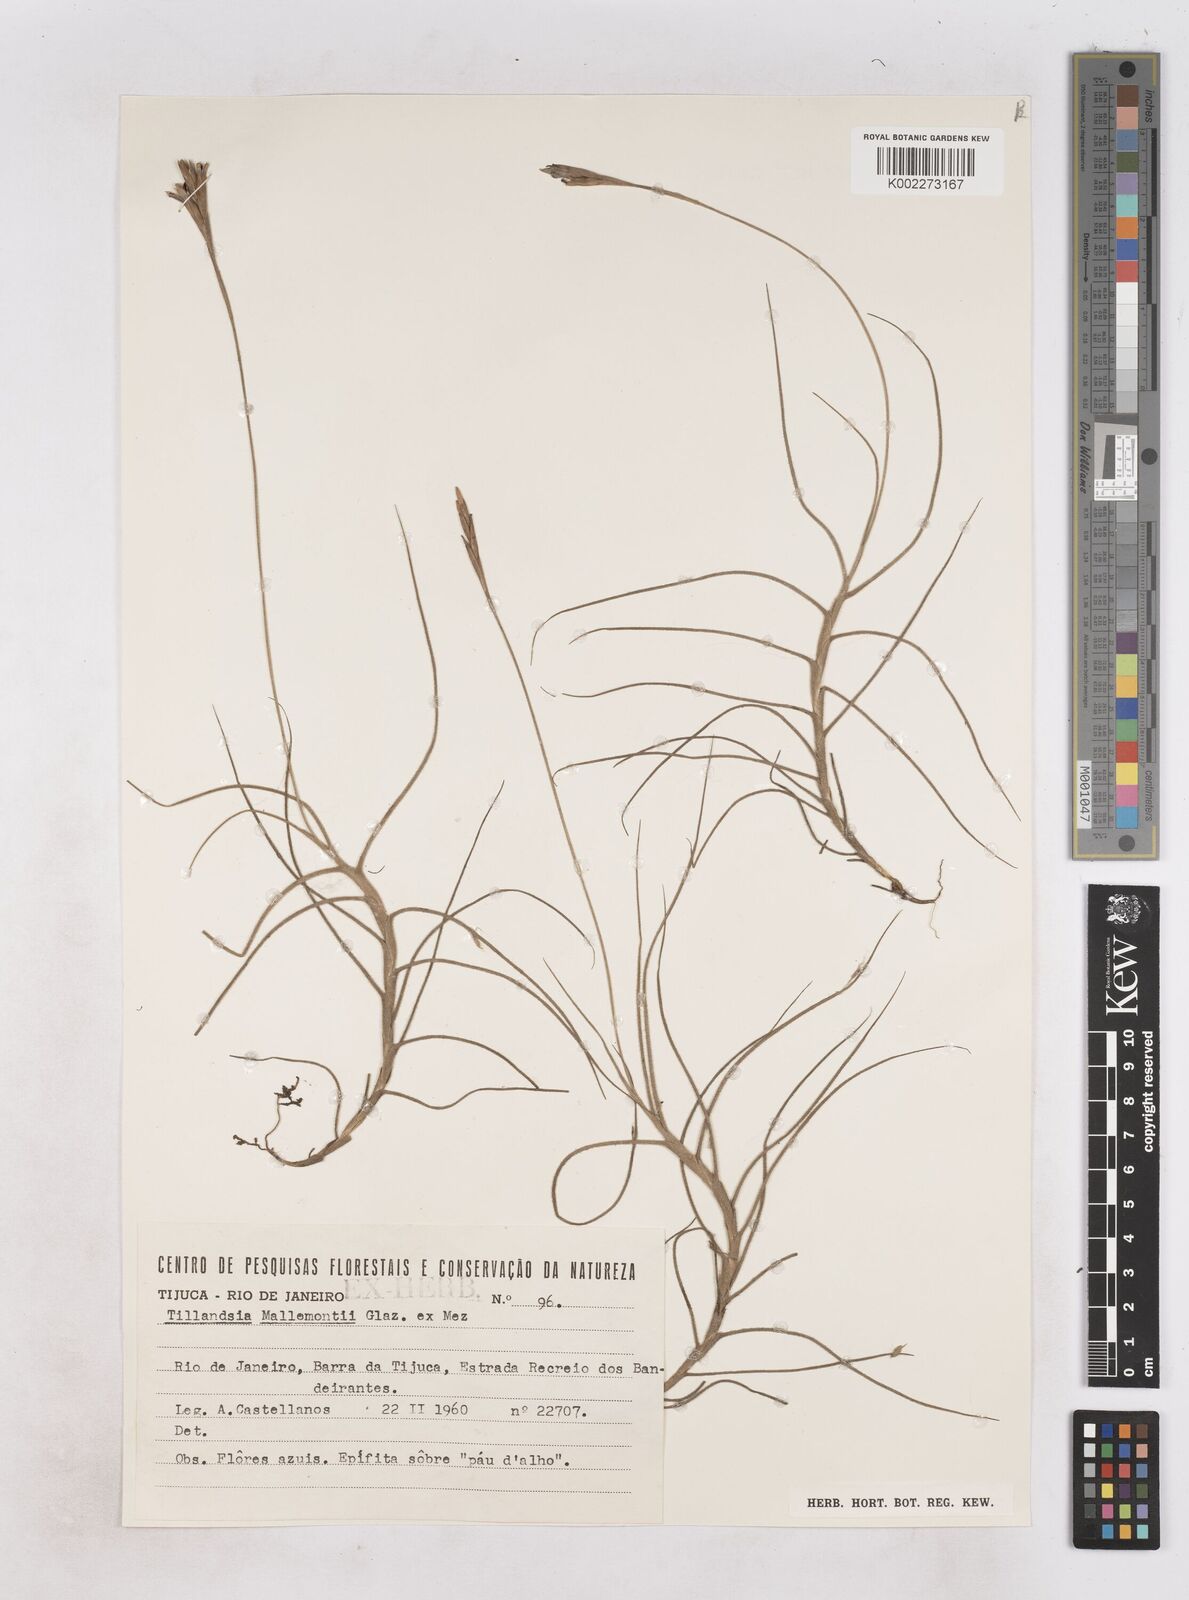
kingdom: Plantae
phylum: Tracheophyta
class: Liliopsida
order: Poales
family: Bromeliaceae
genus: Tillandsia
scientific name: Tillandsia mallemontii
